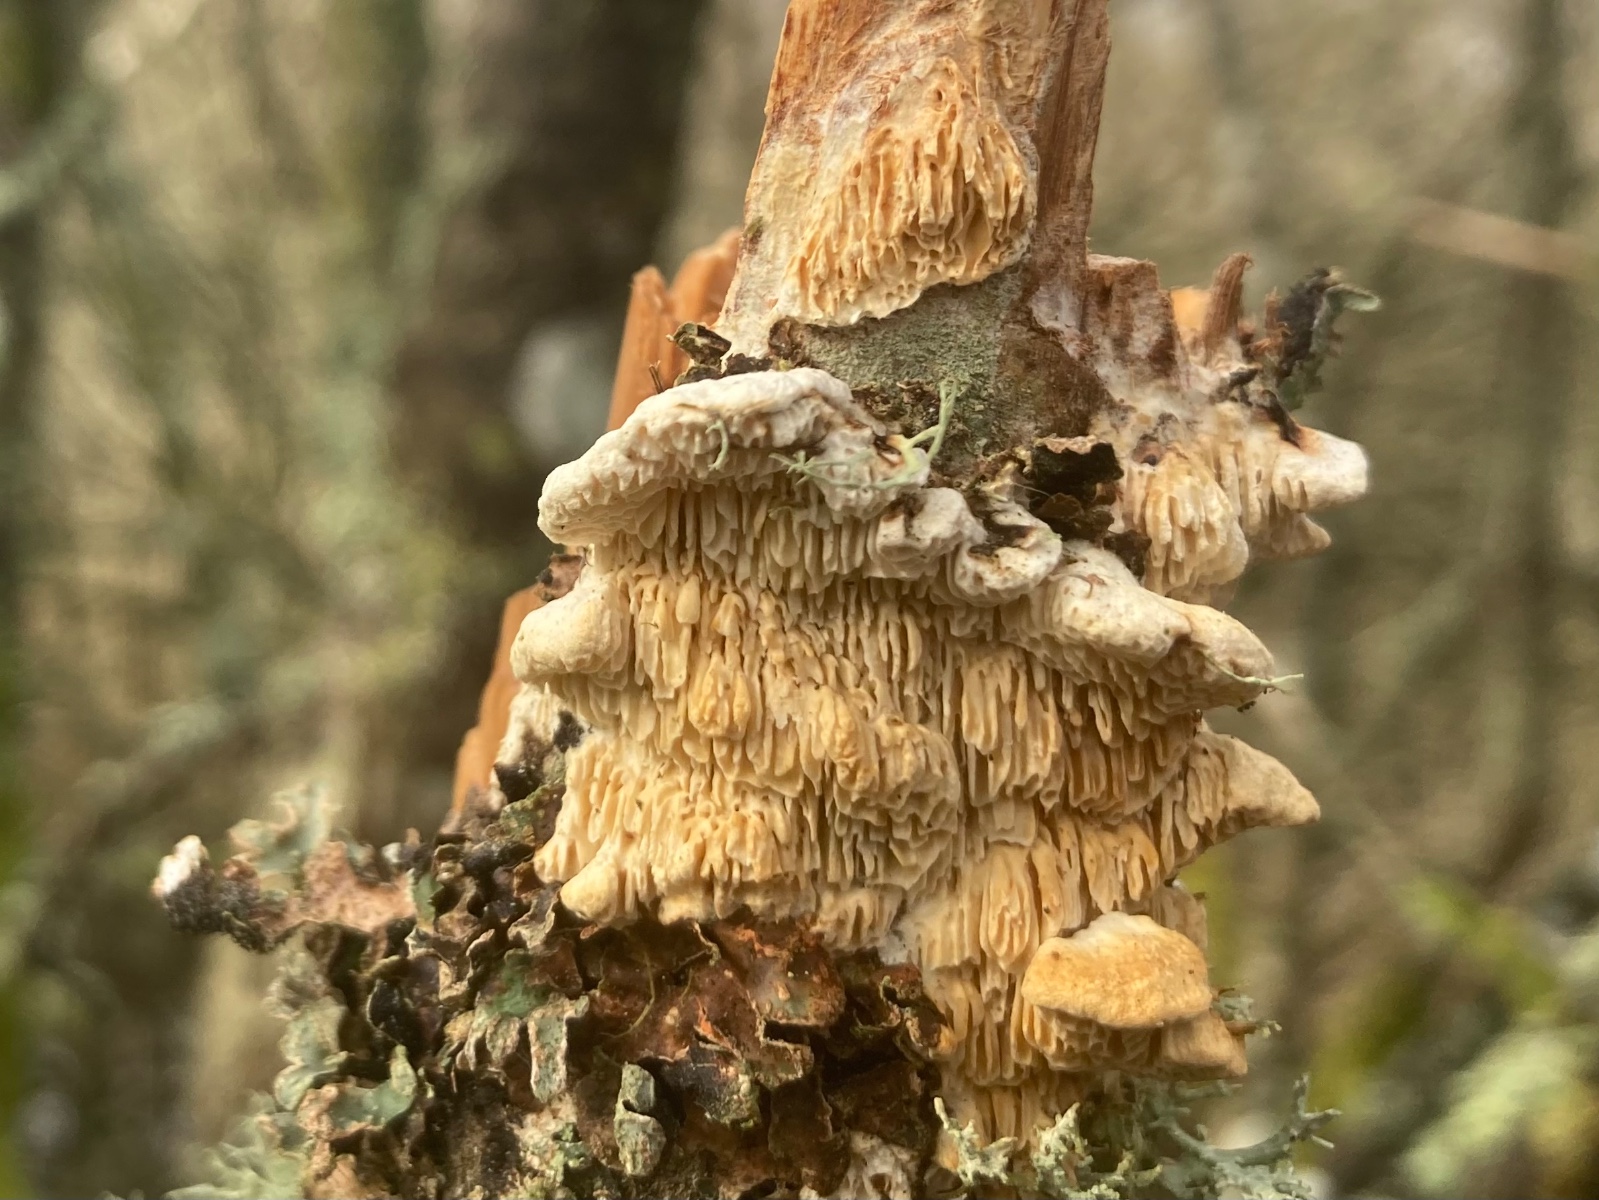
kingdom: Fungi
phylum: Basidiomycota
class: Agaricomycetes
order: Polyporales
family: Fomitopsidaceae
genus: Fomitopsis
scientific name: Fomitopsis
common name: pile-skiveporesvamp
